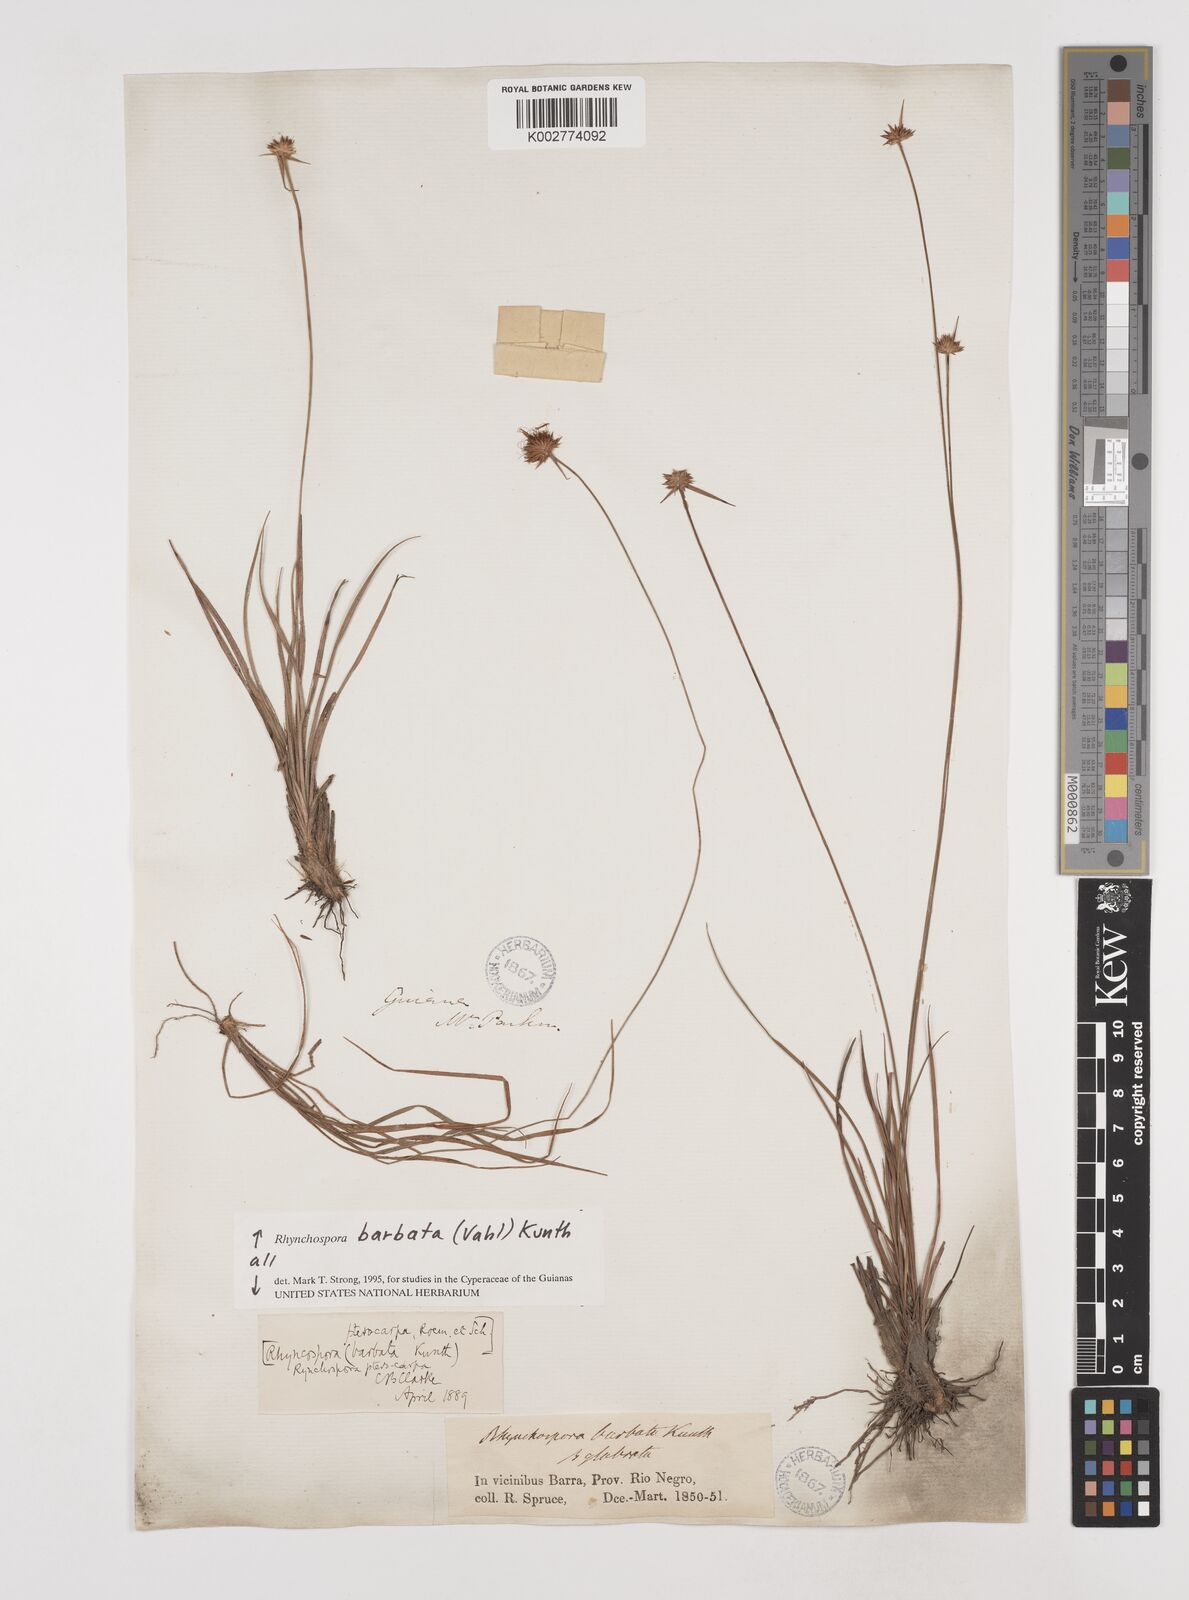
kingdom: Plantae
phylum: Tracheophyta
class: Liliopsida
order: Poales
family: Cyperaceae
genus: Rhynchospora
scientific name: Rhynchospora barbata
